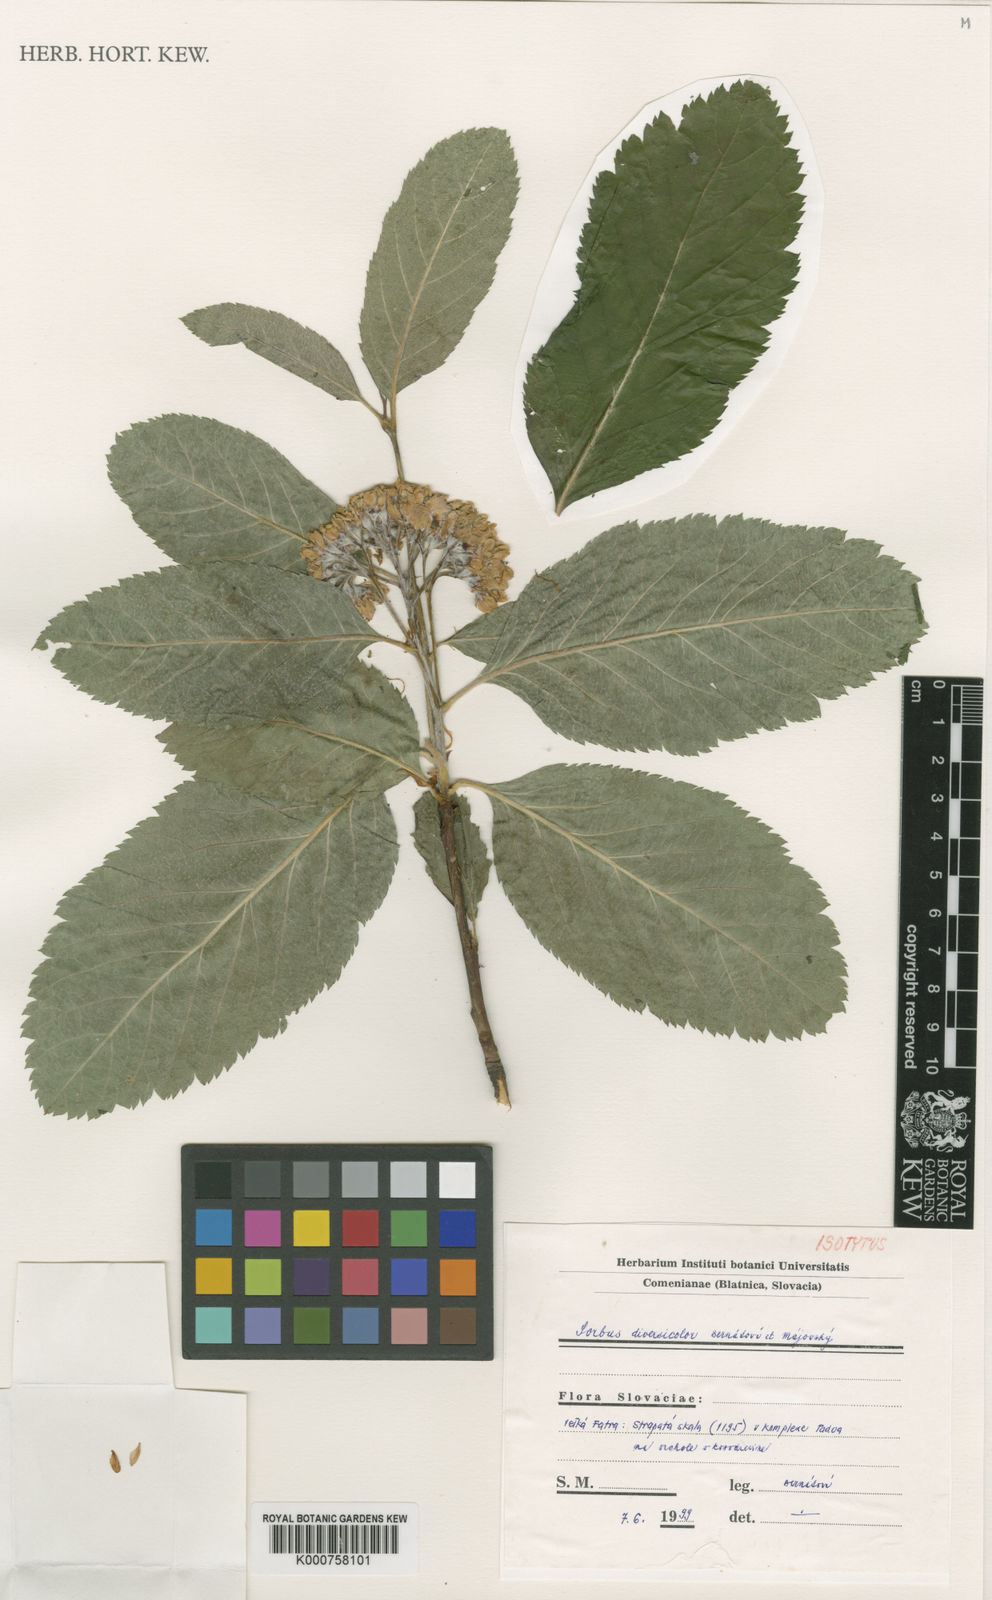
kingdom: Plantae
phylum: Tracheophyta
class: Magnoliopsida
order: Rosales
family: Rosaceae
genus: Sorbus
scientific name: Sorbus
